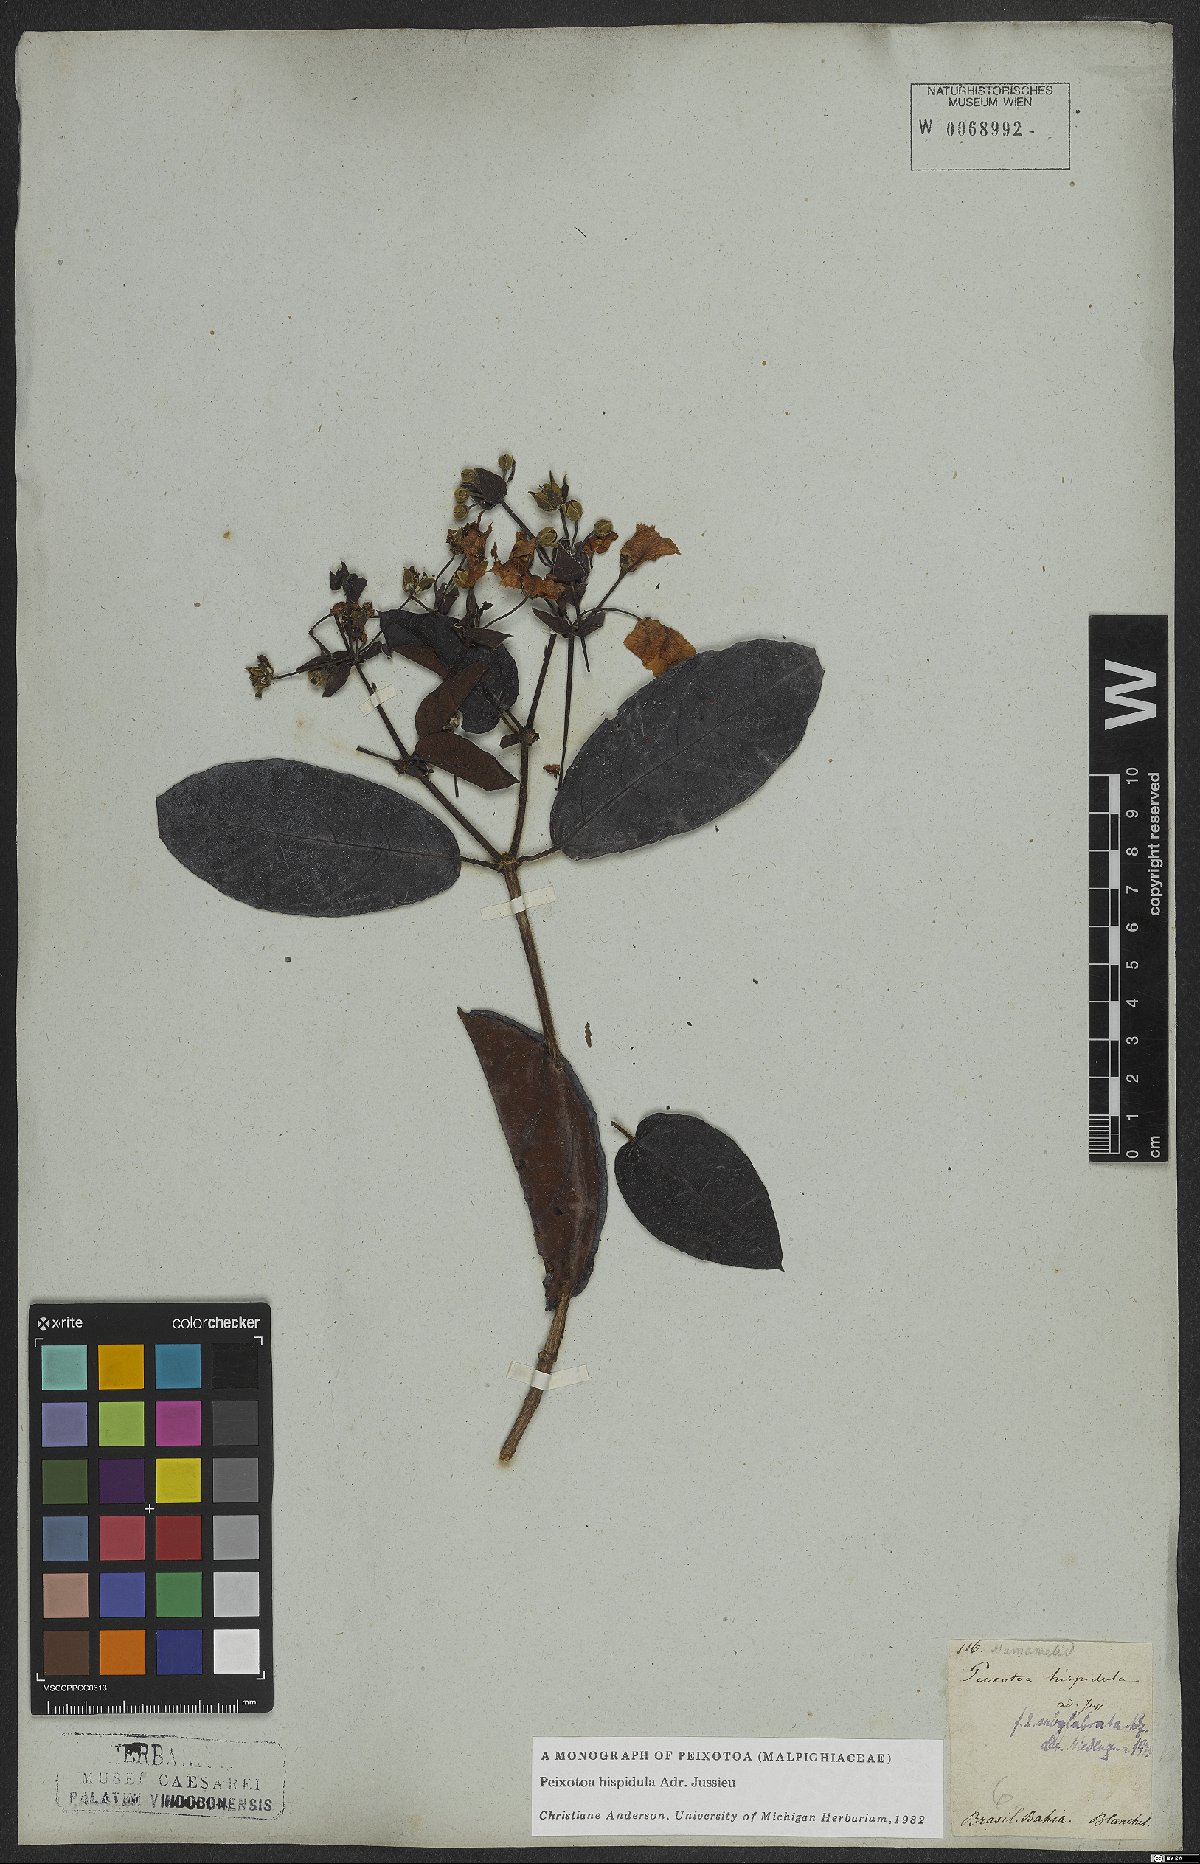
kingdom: Plantae
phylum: Tracheophyta
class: Magnoliopsida
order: Malpighiales
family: Malpighiaceae
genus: Peixotoa
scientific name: Peixotoa hispidula
